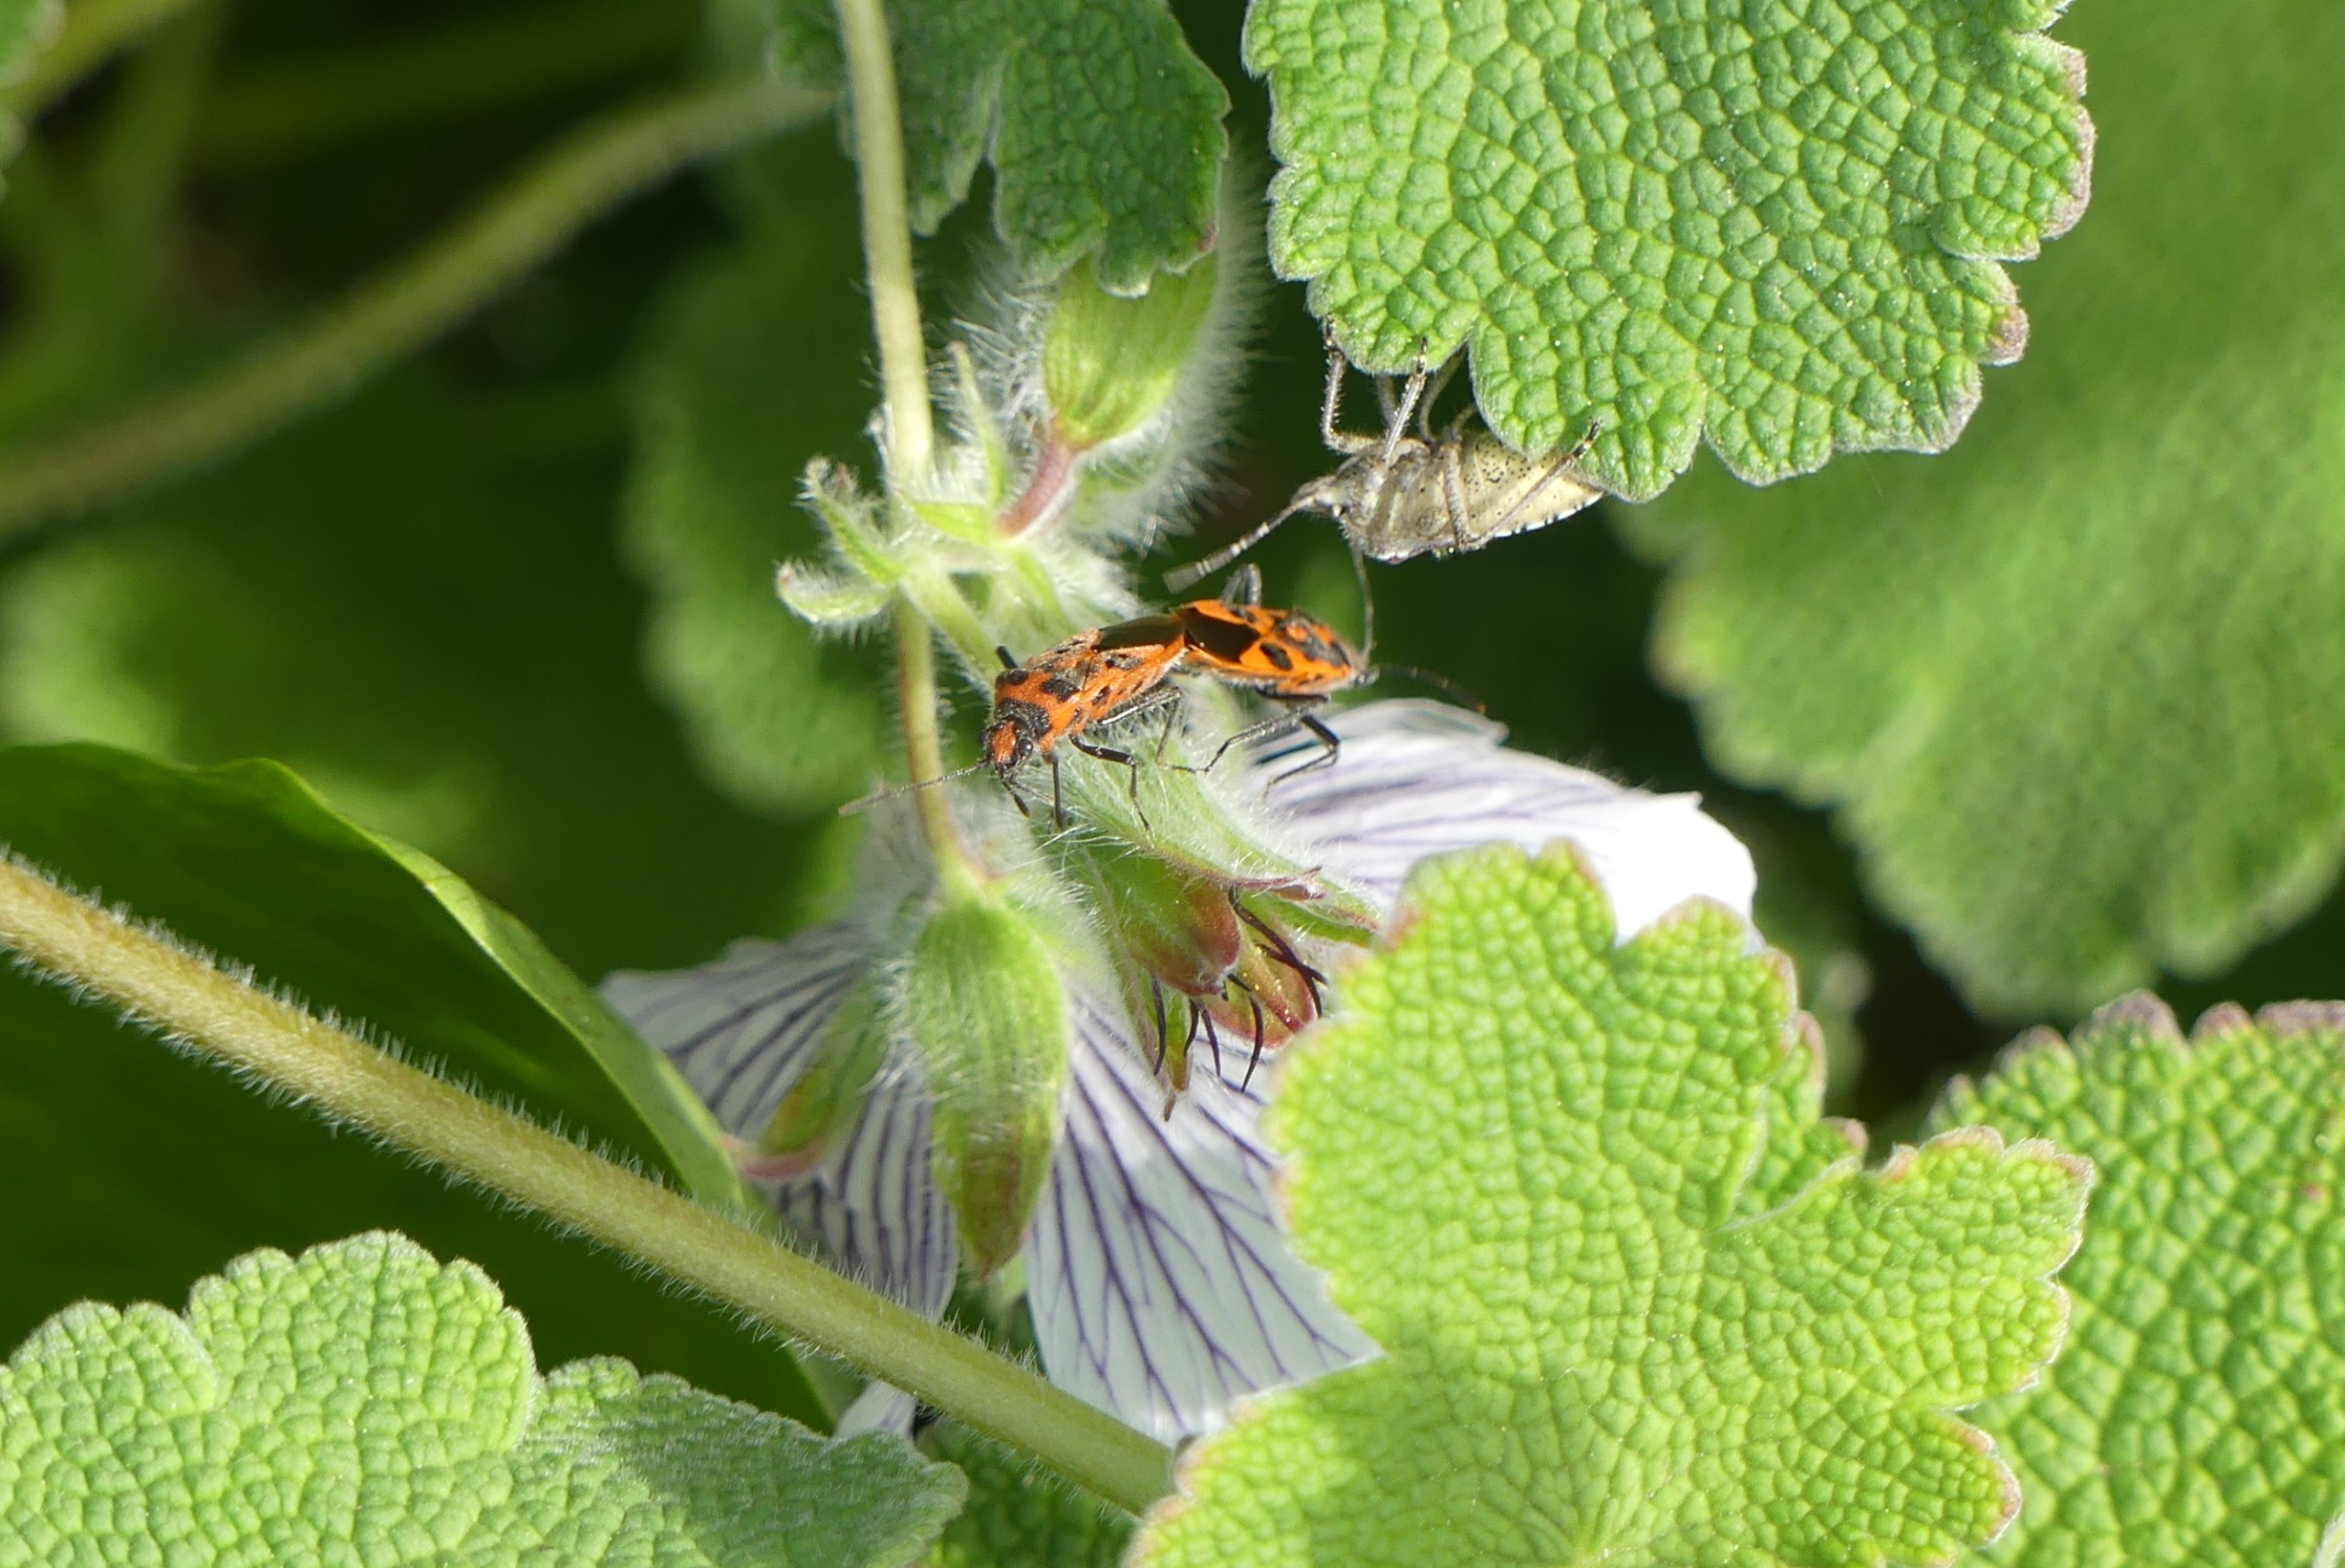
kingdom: Animalia
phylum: Arthropoda
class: Insecta
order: Hemiptera
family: Rhopalidae
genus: Corizus
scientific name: Corizus hyoscyami
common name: Rød kanttæge
